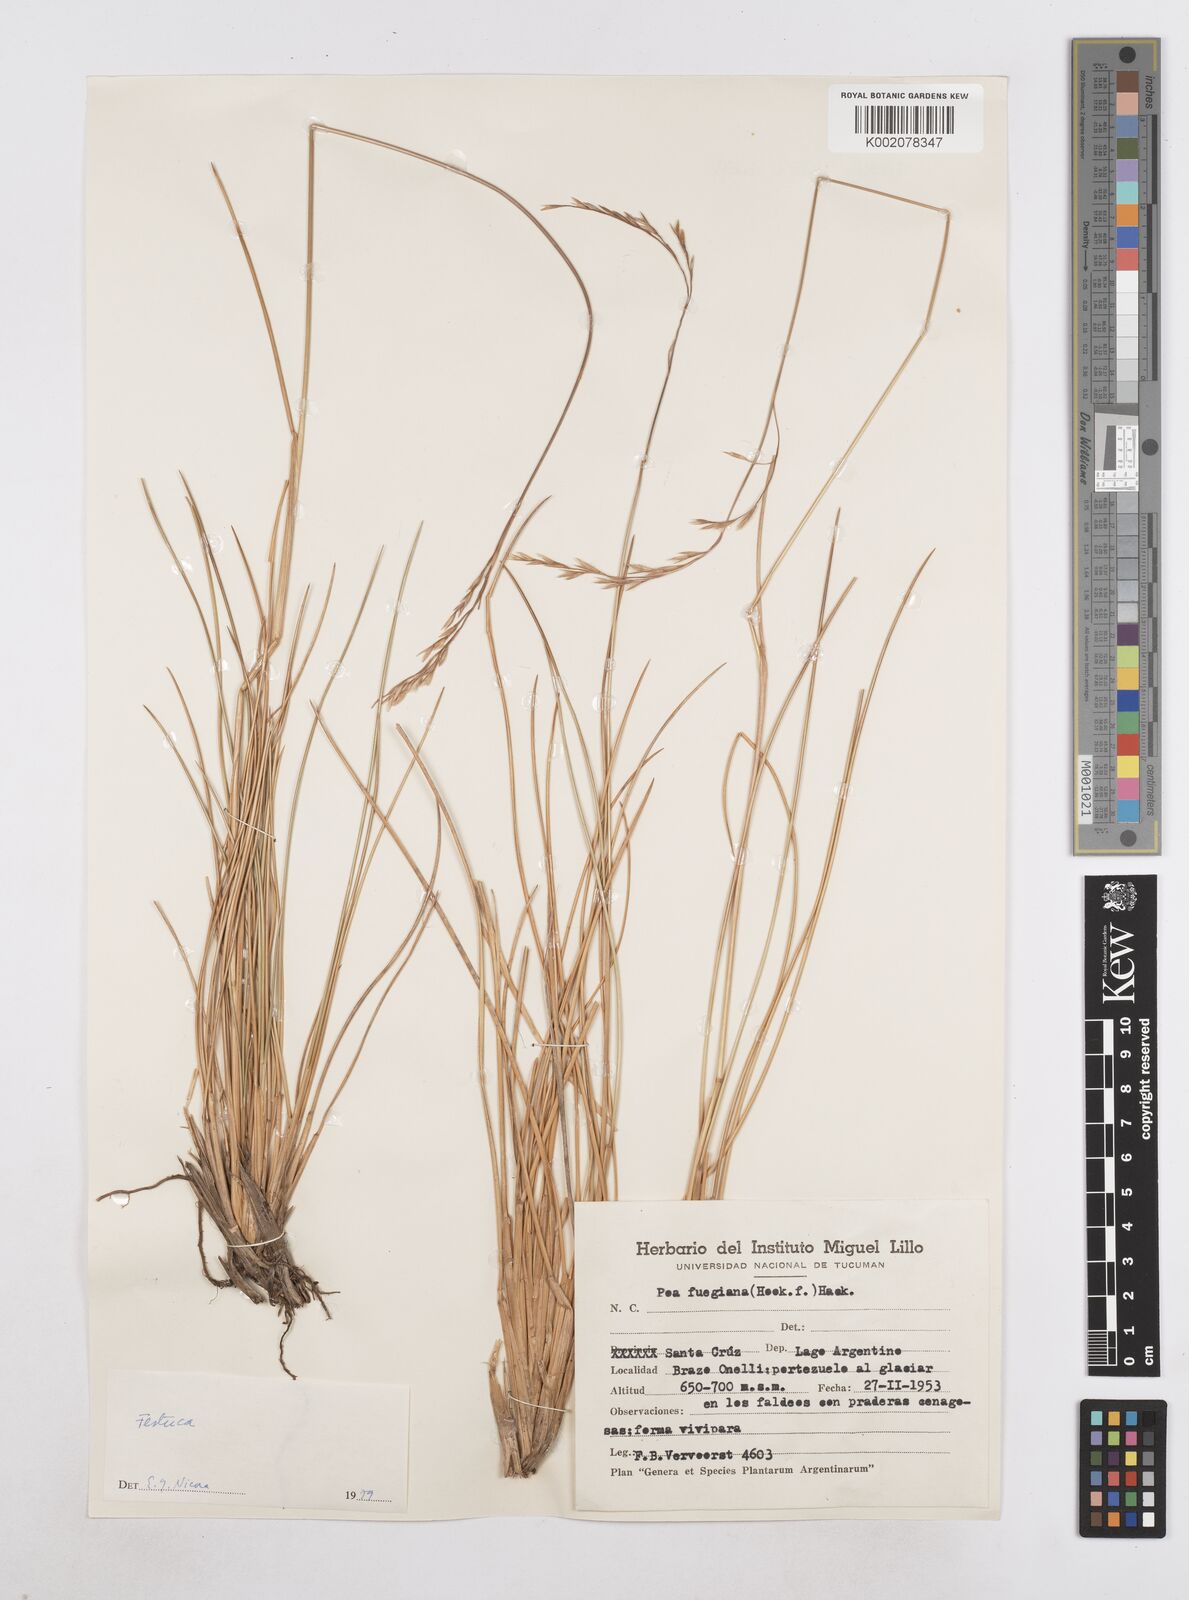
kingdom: Plantae
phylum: Tracheophyta
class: Liliopsida
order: Poales
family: Poaceae
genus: Poa
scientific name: Poa alopecurus
